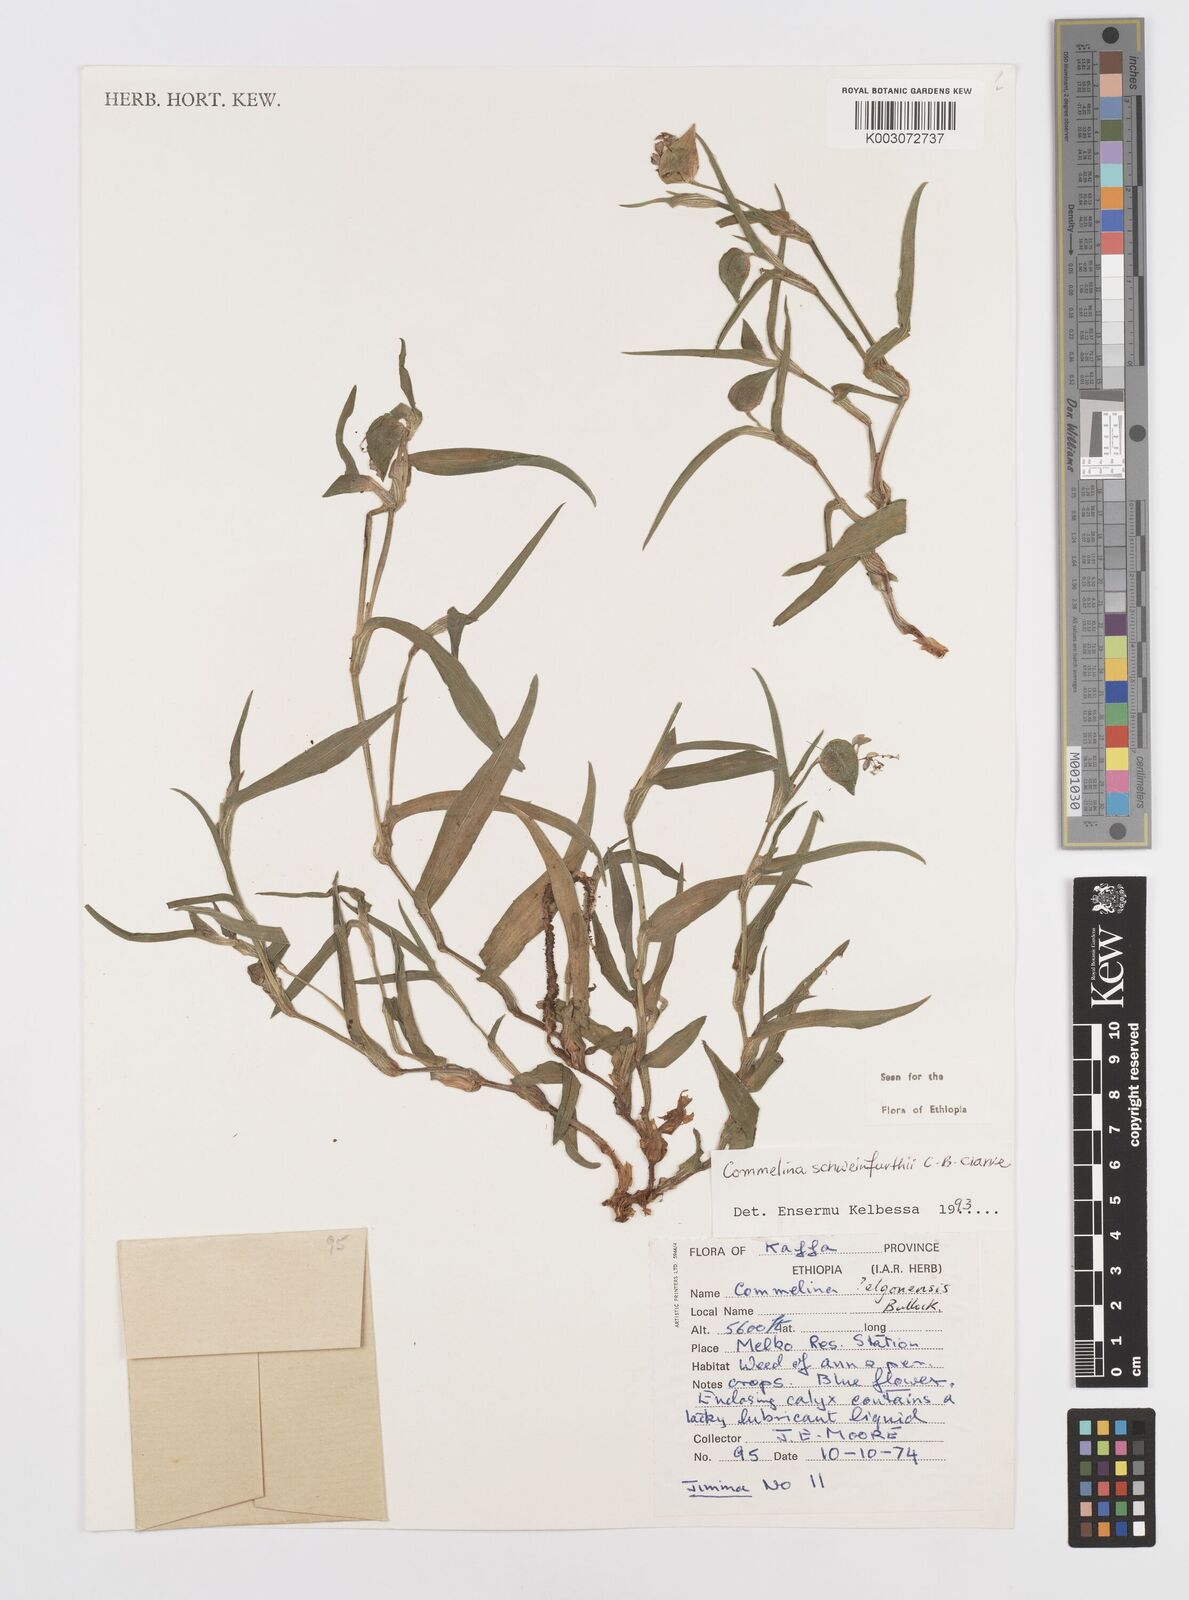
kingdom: Plantae
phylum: Tracheophyta
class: Liliopsida
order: Commelinales
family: Commelinaceae
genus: Commelina
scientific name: Commelina schweinfurthii
